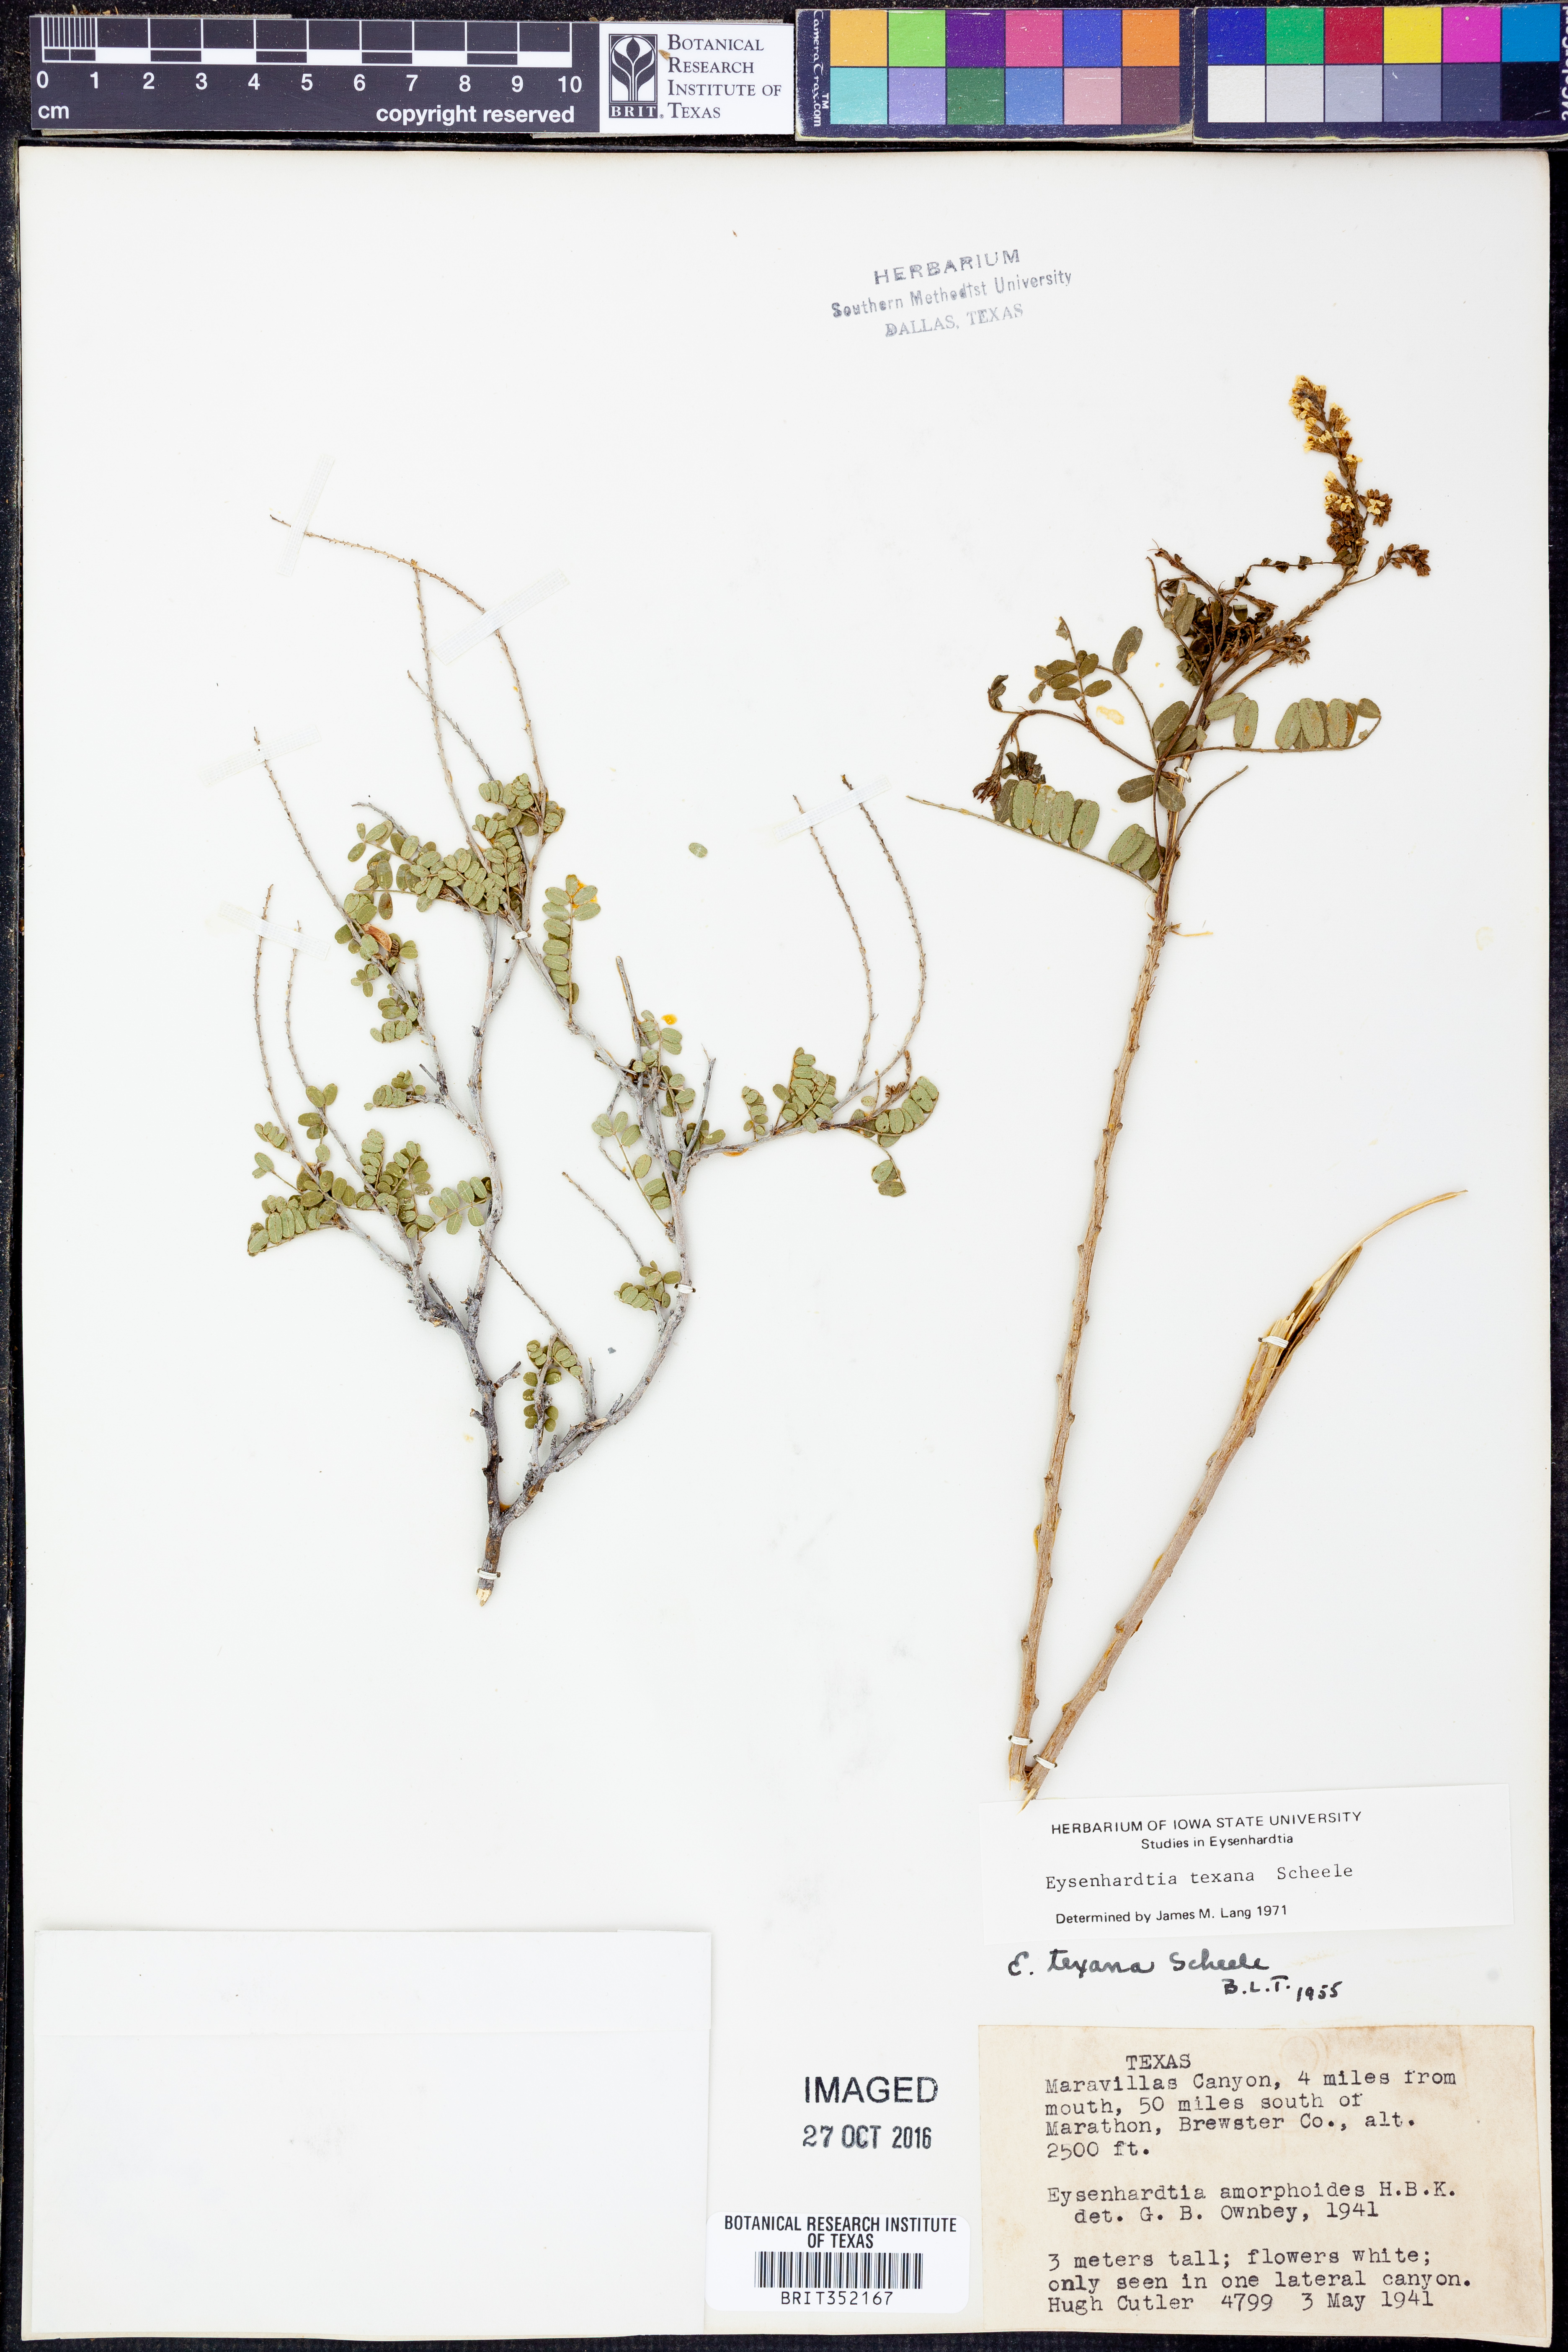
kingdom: Plantae
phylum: Tracheophyta
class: Magnoliopsida
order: Fabales
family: Fabaceae
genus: Eysenhardtia
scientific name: Eysenhardtia texana
